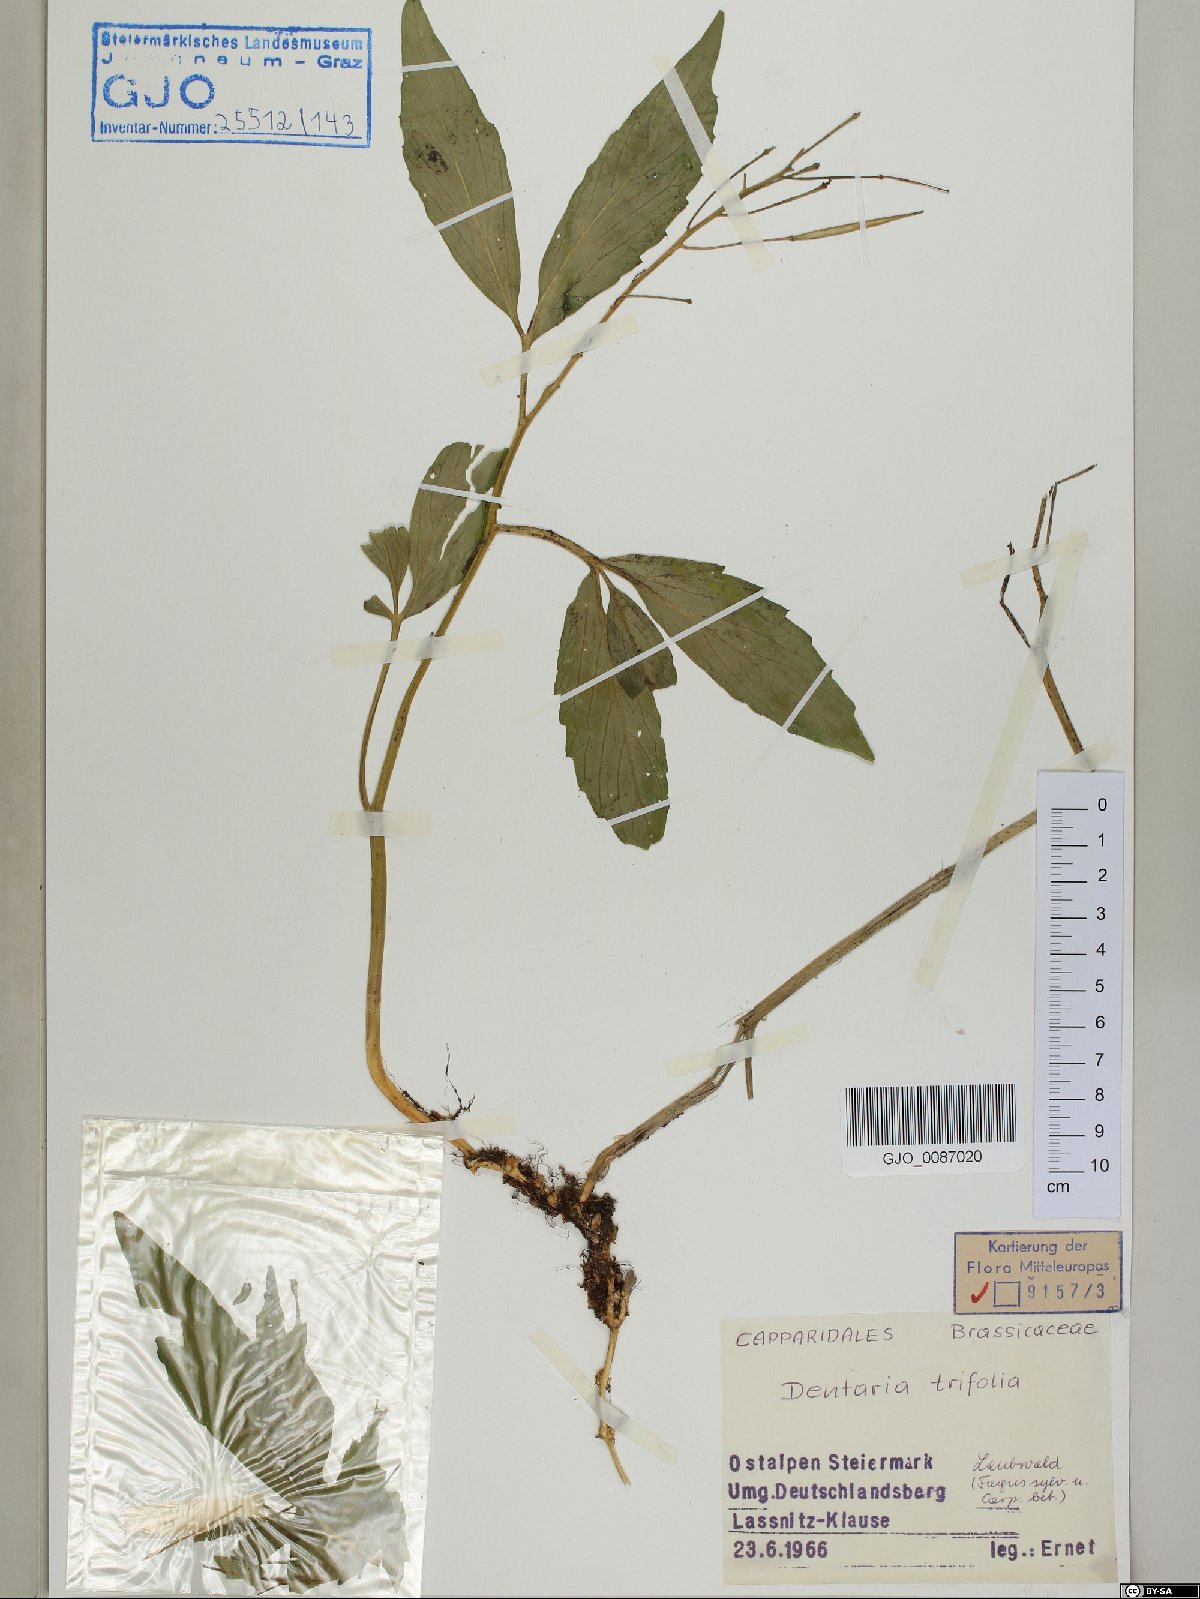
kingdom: Plantae
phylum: Tracheophyta
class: Magnoliopsida
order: Brassicales
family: Brassicaceae
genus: Cardamine
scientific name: Cardamine waldsteinii
